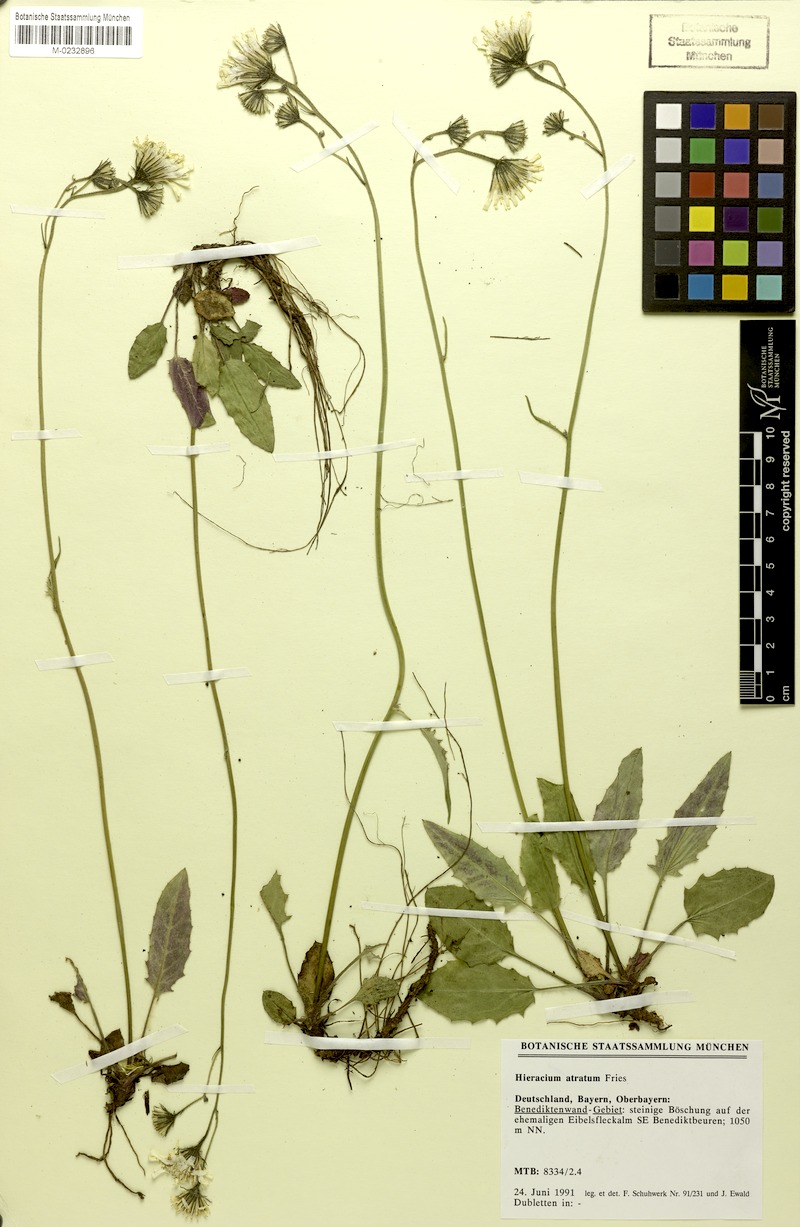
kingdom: Plantae
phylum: Tracheophyta
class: Magnoliopsida
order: Asterales
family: Asteraceae
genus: Hieracium
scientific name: Hieracium atratum
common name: Polar hawkweed
